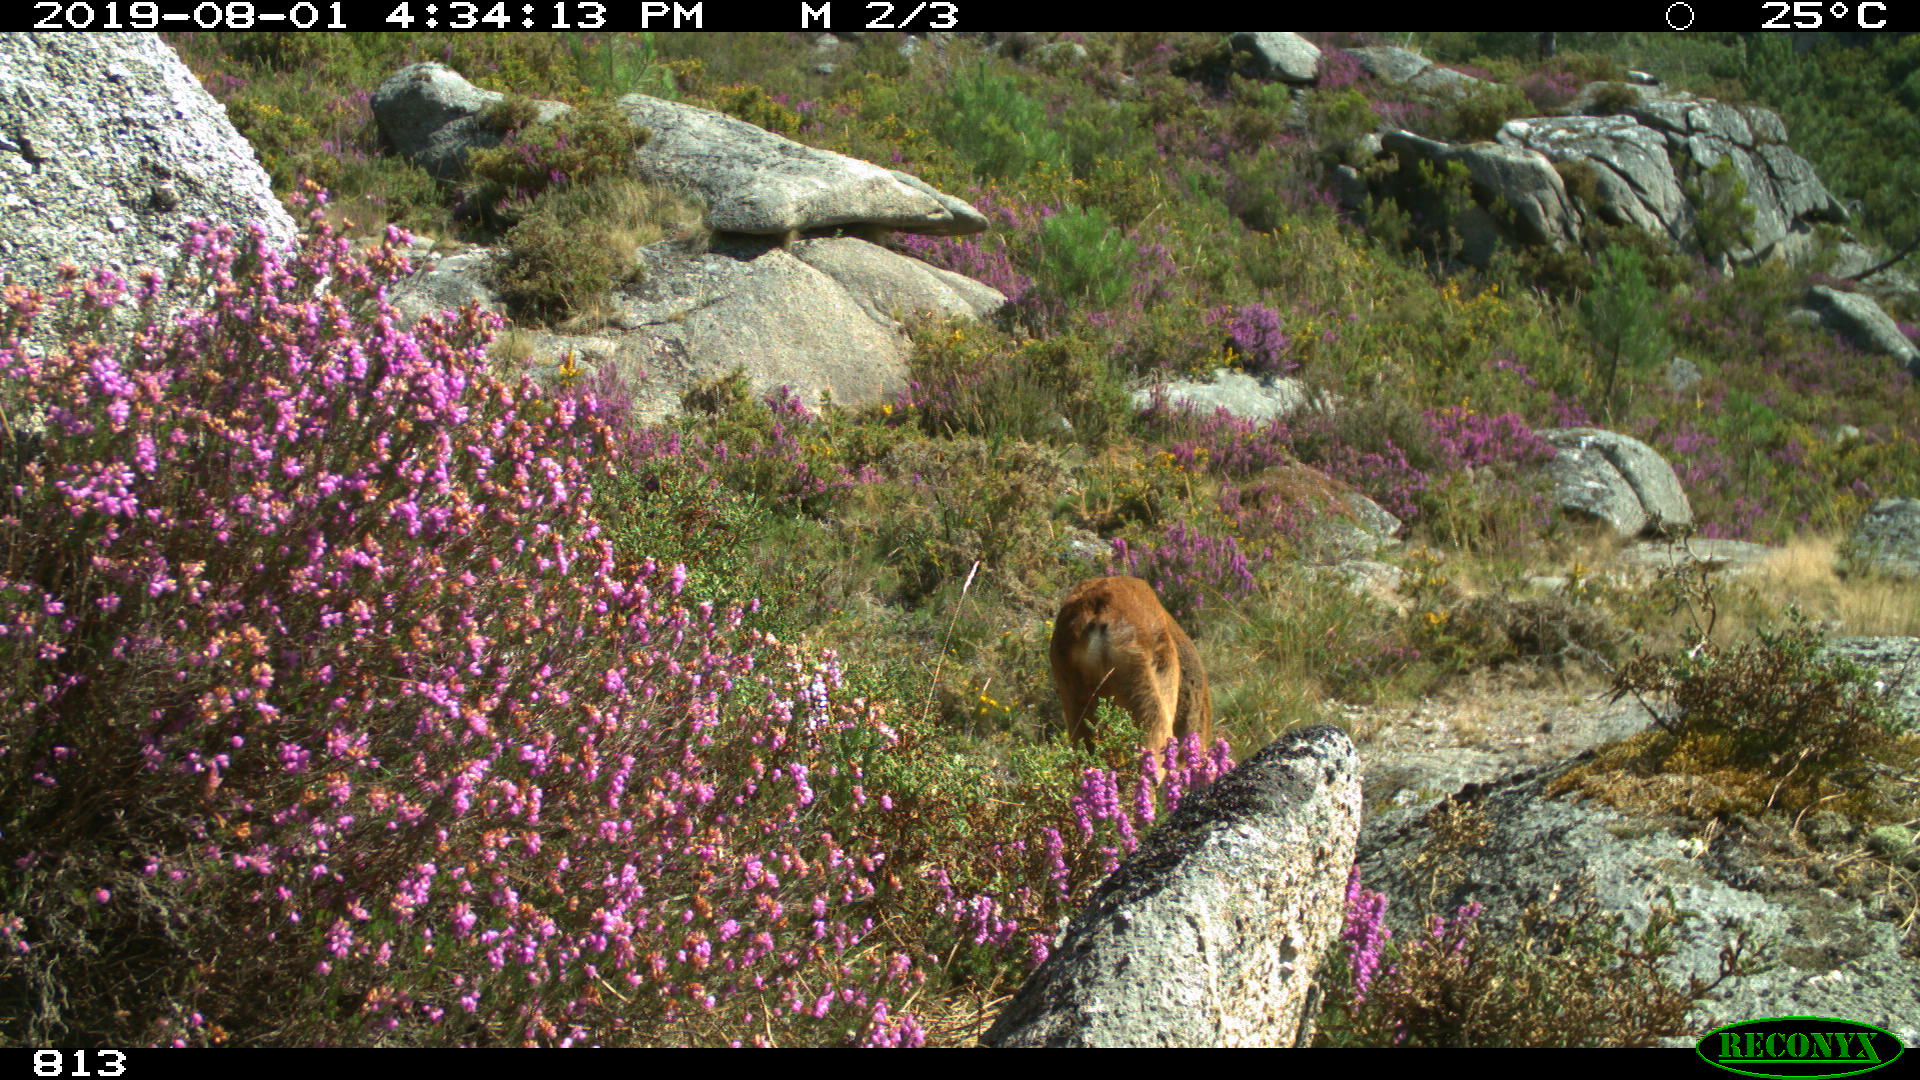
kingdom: Animalia
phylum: Chordata
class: Mammalia
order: Artiodactyla
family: Cervidae
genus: Capreolus
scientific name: Capreolus capreolus
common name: Western roe deer
